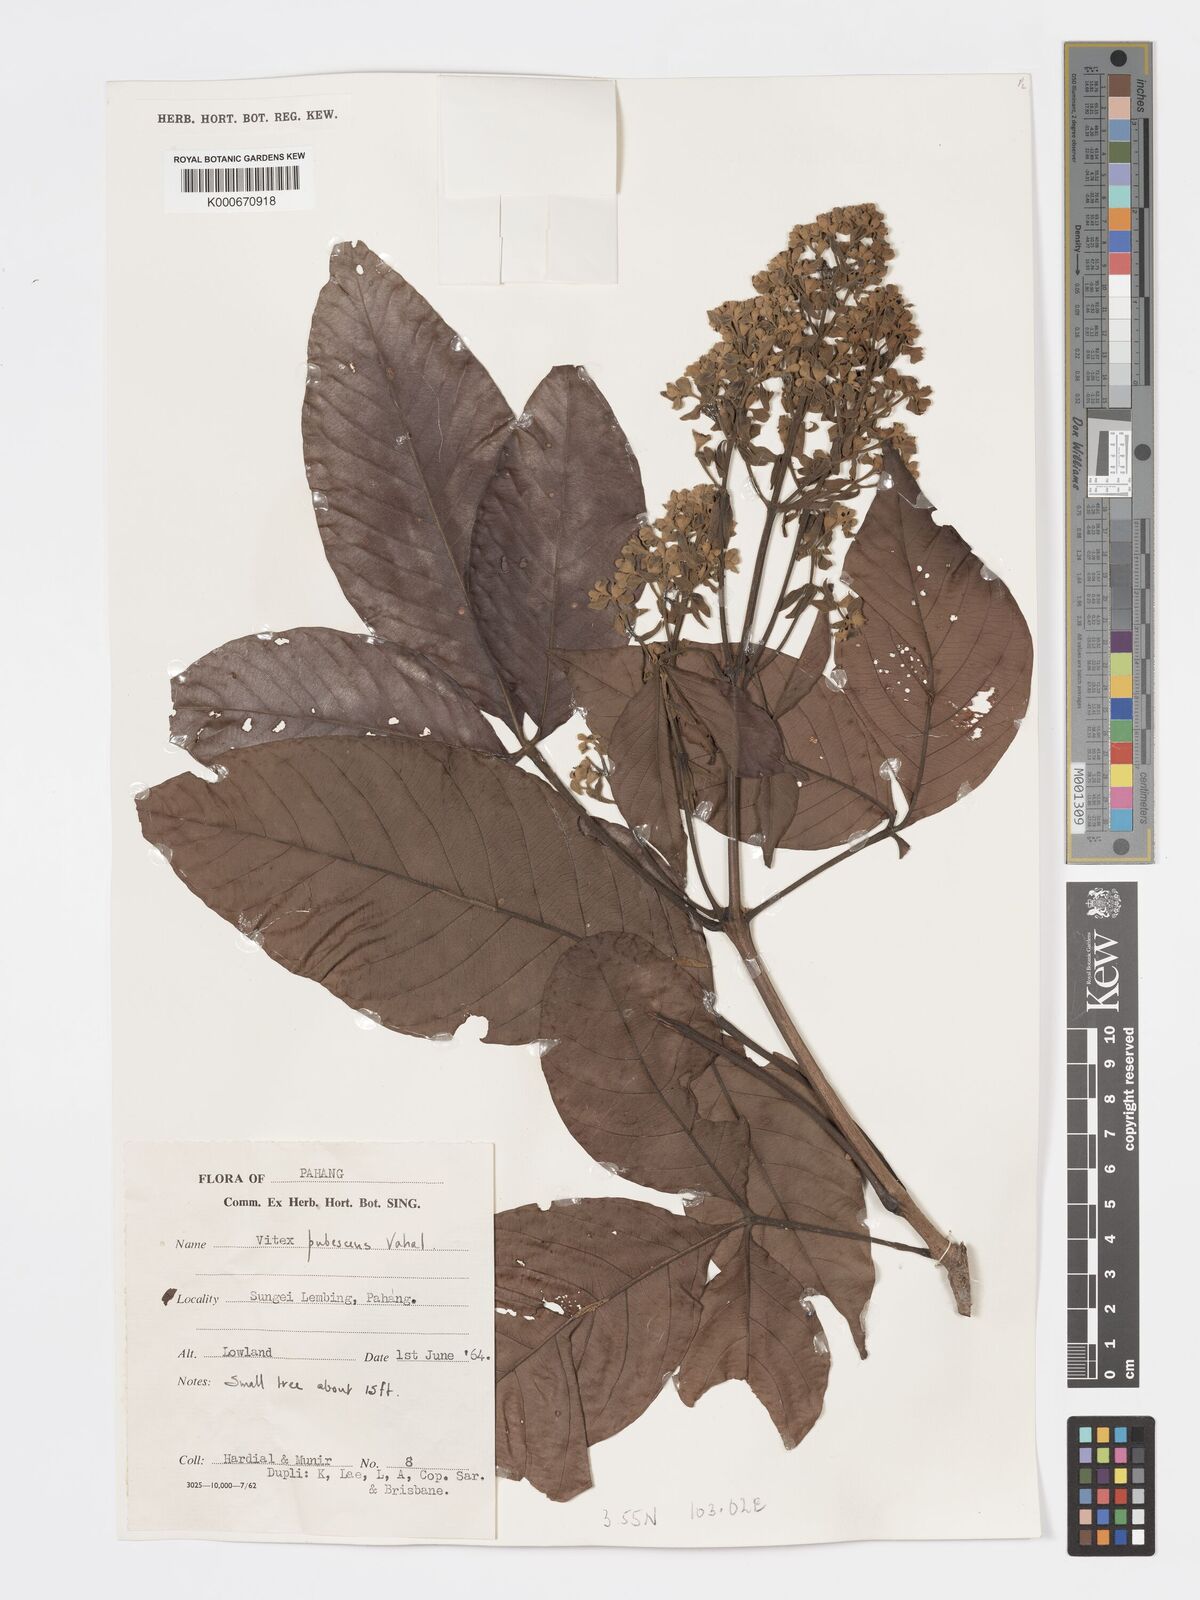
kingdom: Plantae
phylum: Tracheophyta
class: Magnoliopsida
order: Lamiales
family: Lamiaceae
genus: Vitex
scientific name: Vitex pinnata
